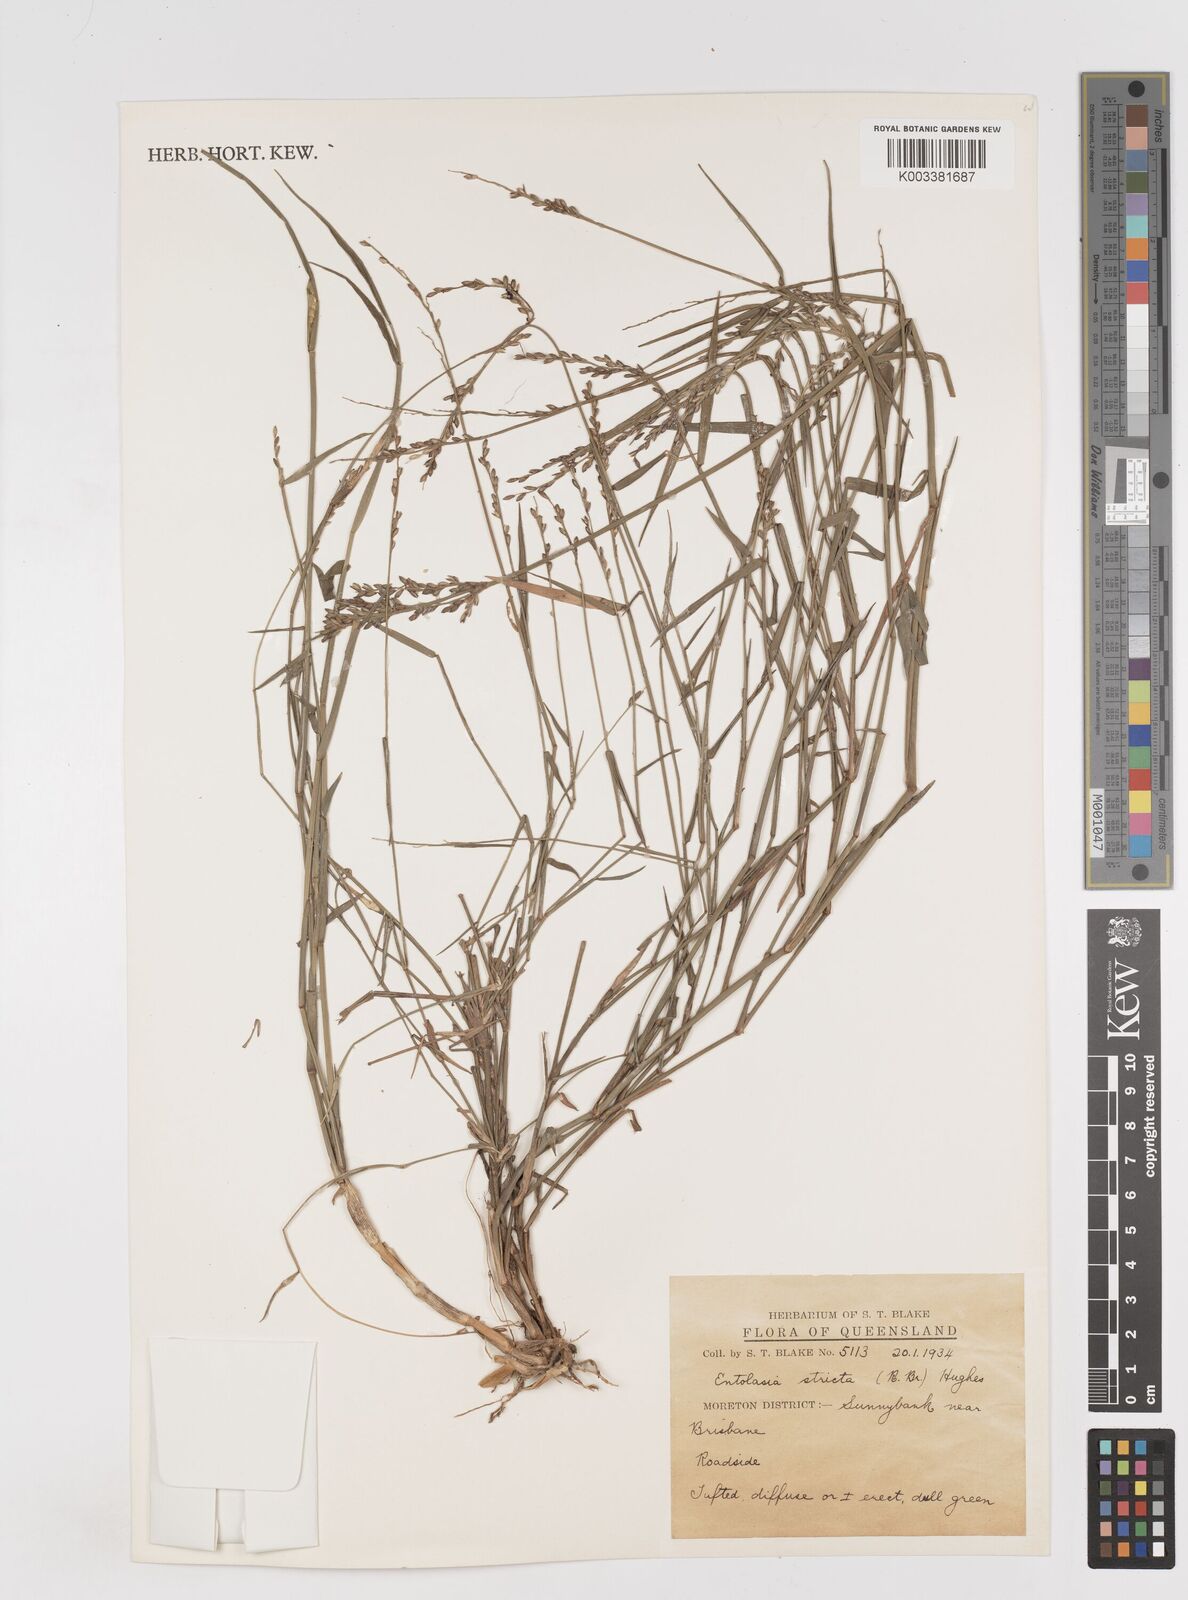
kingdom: Plantae
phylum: Tracheophyta
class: Liliopsida
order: Poales
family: Poaceae
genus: Entolasia
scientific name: Entolasia stricta
